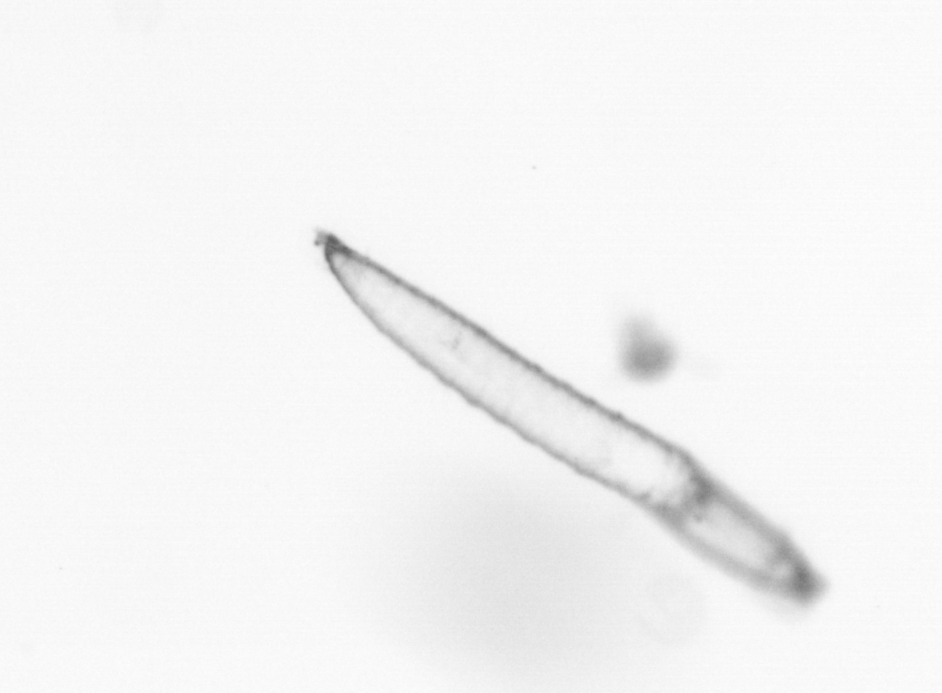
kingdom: Animalia
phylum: Annelida
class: Polychaeta
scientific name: Polychaeta
